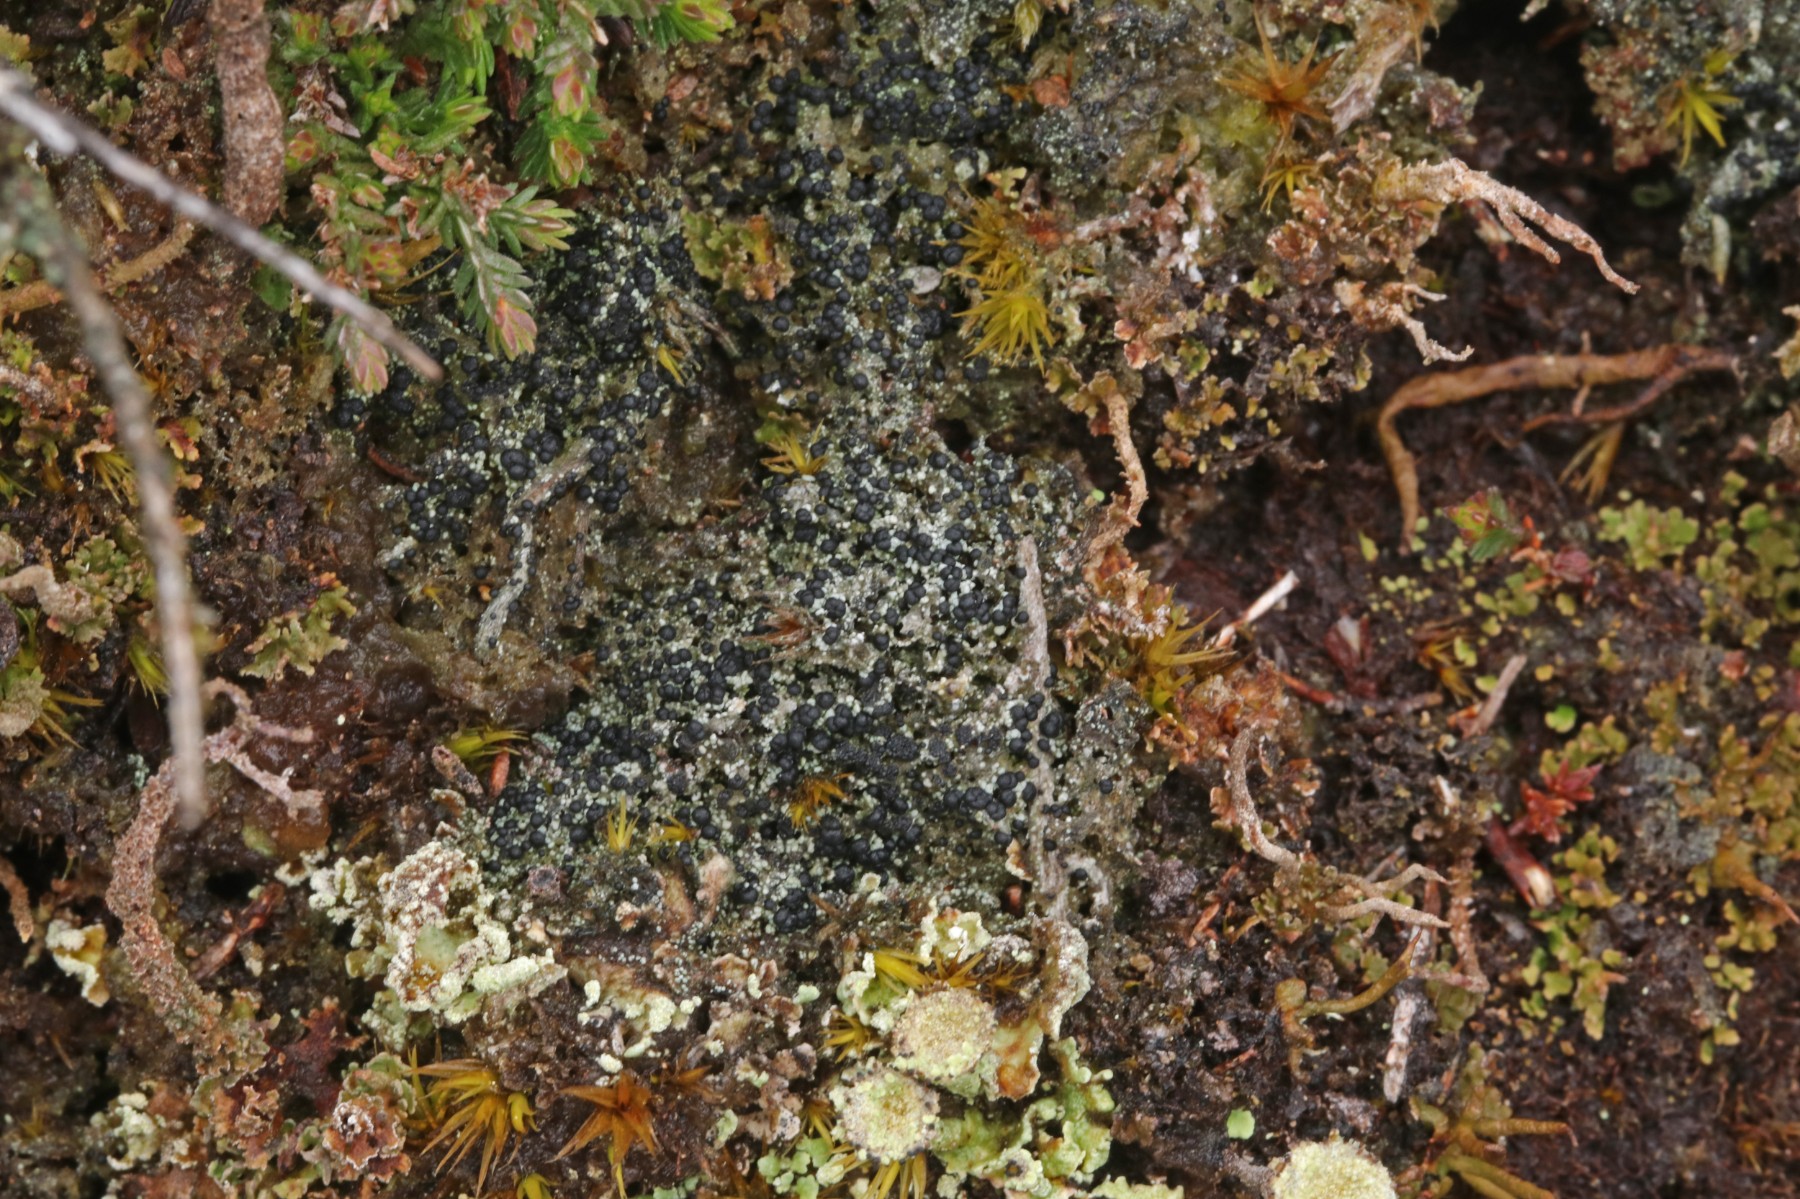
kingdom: Fungi
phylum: Ascomycota
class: Lecanoromycetes
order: Lecanorales
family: Byssolomataceae
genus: Micarea
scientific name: Micarea lignaria
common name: tørve-knaplav
